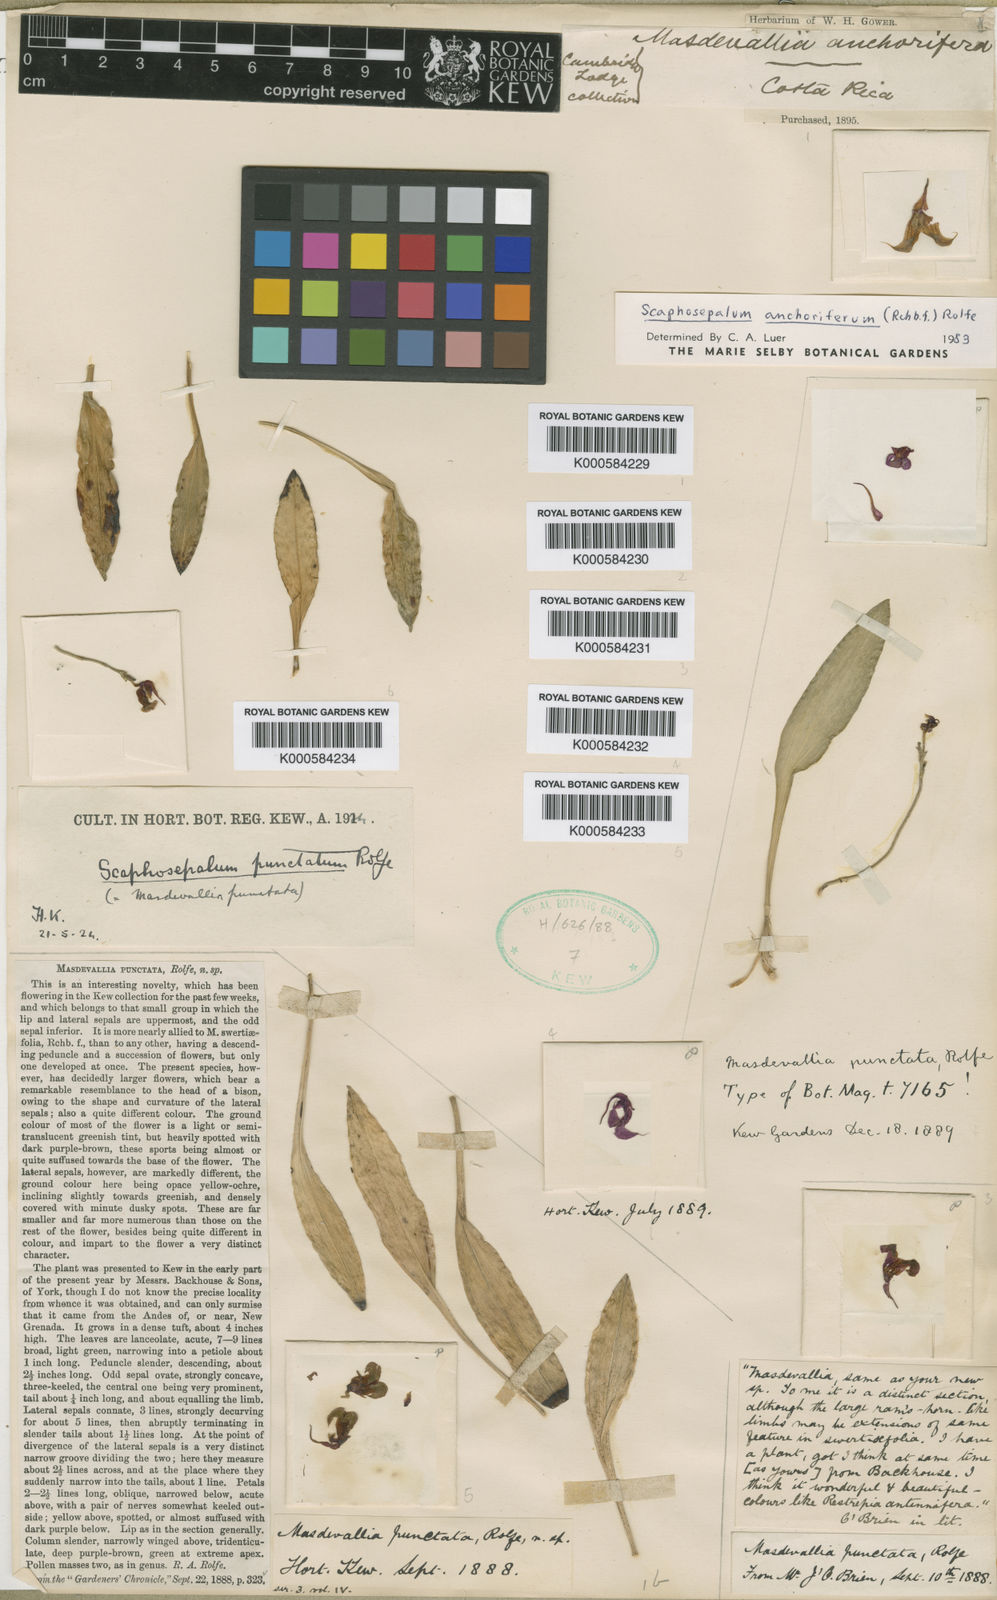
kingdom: Plantae
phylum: Tracheophyta
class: Liliopsida
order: Asparagales
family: Orchidaceae
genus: Scaphosepalum
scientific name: Scaphosepalum anchoriferum
